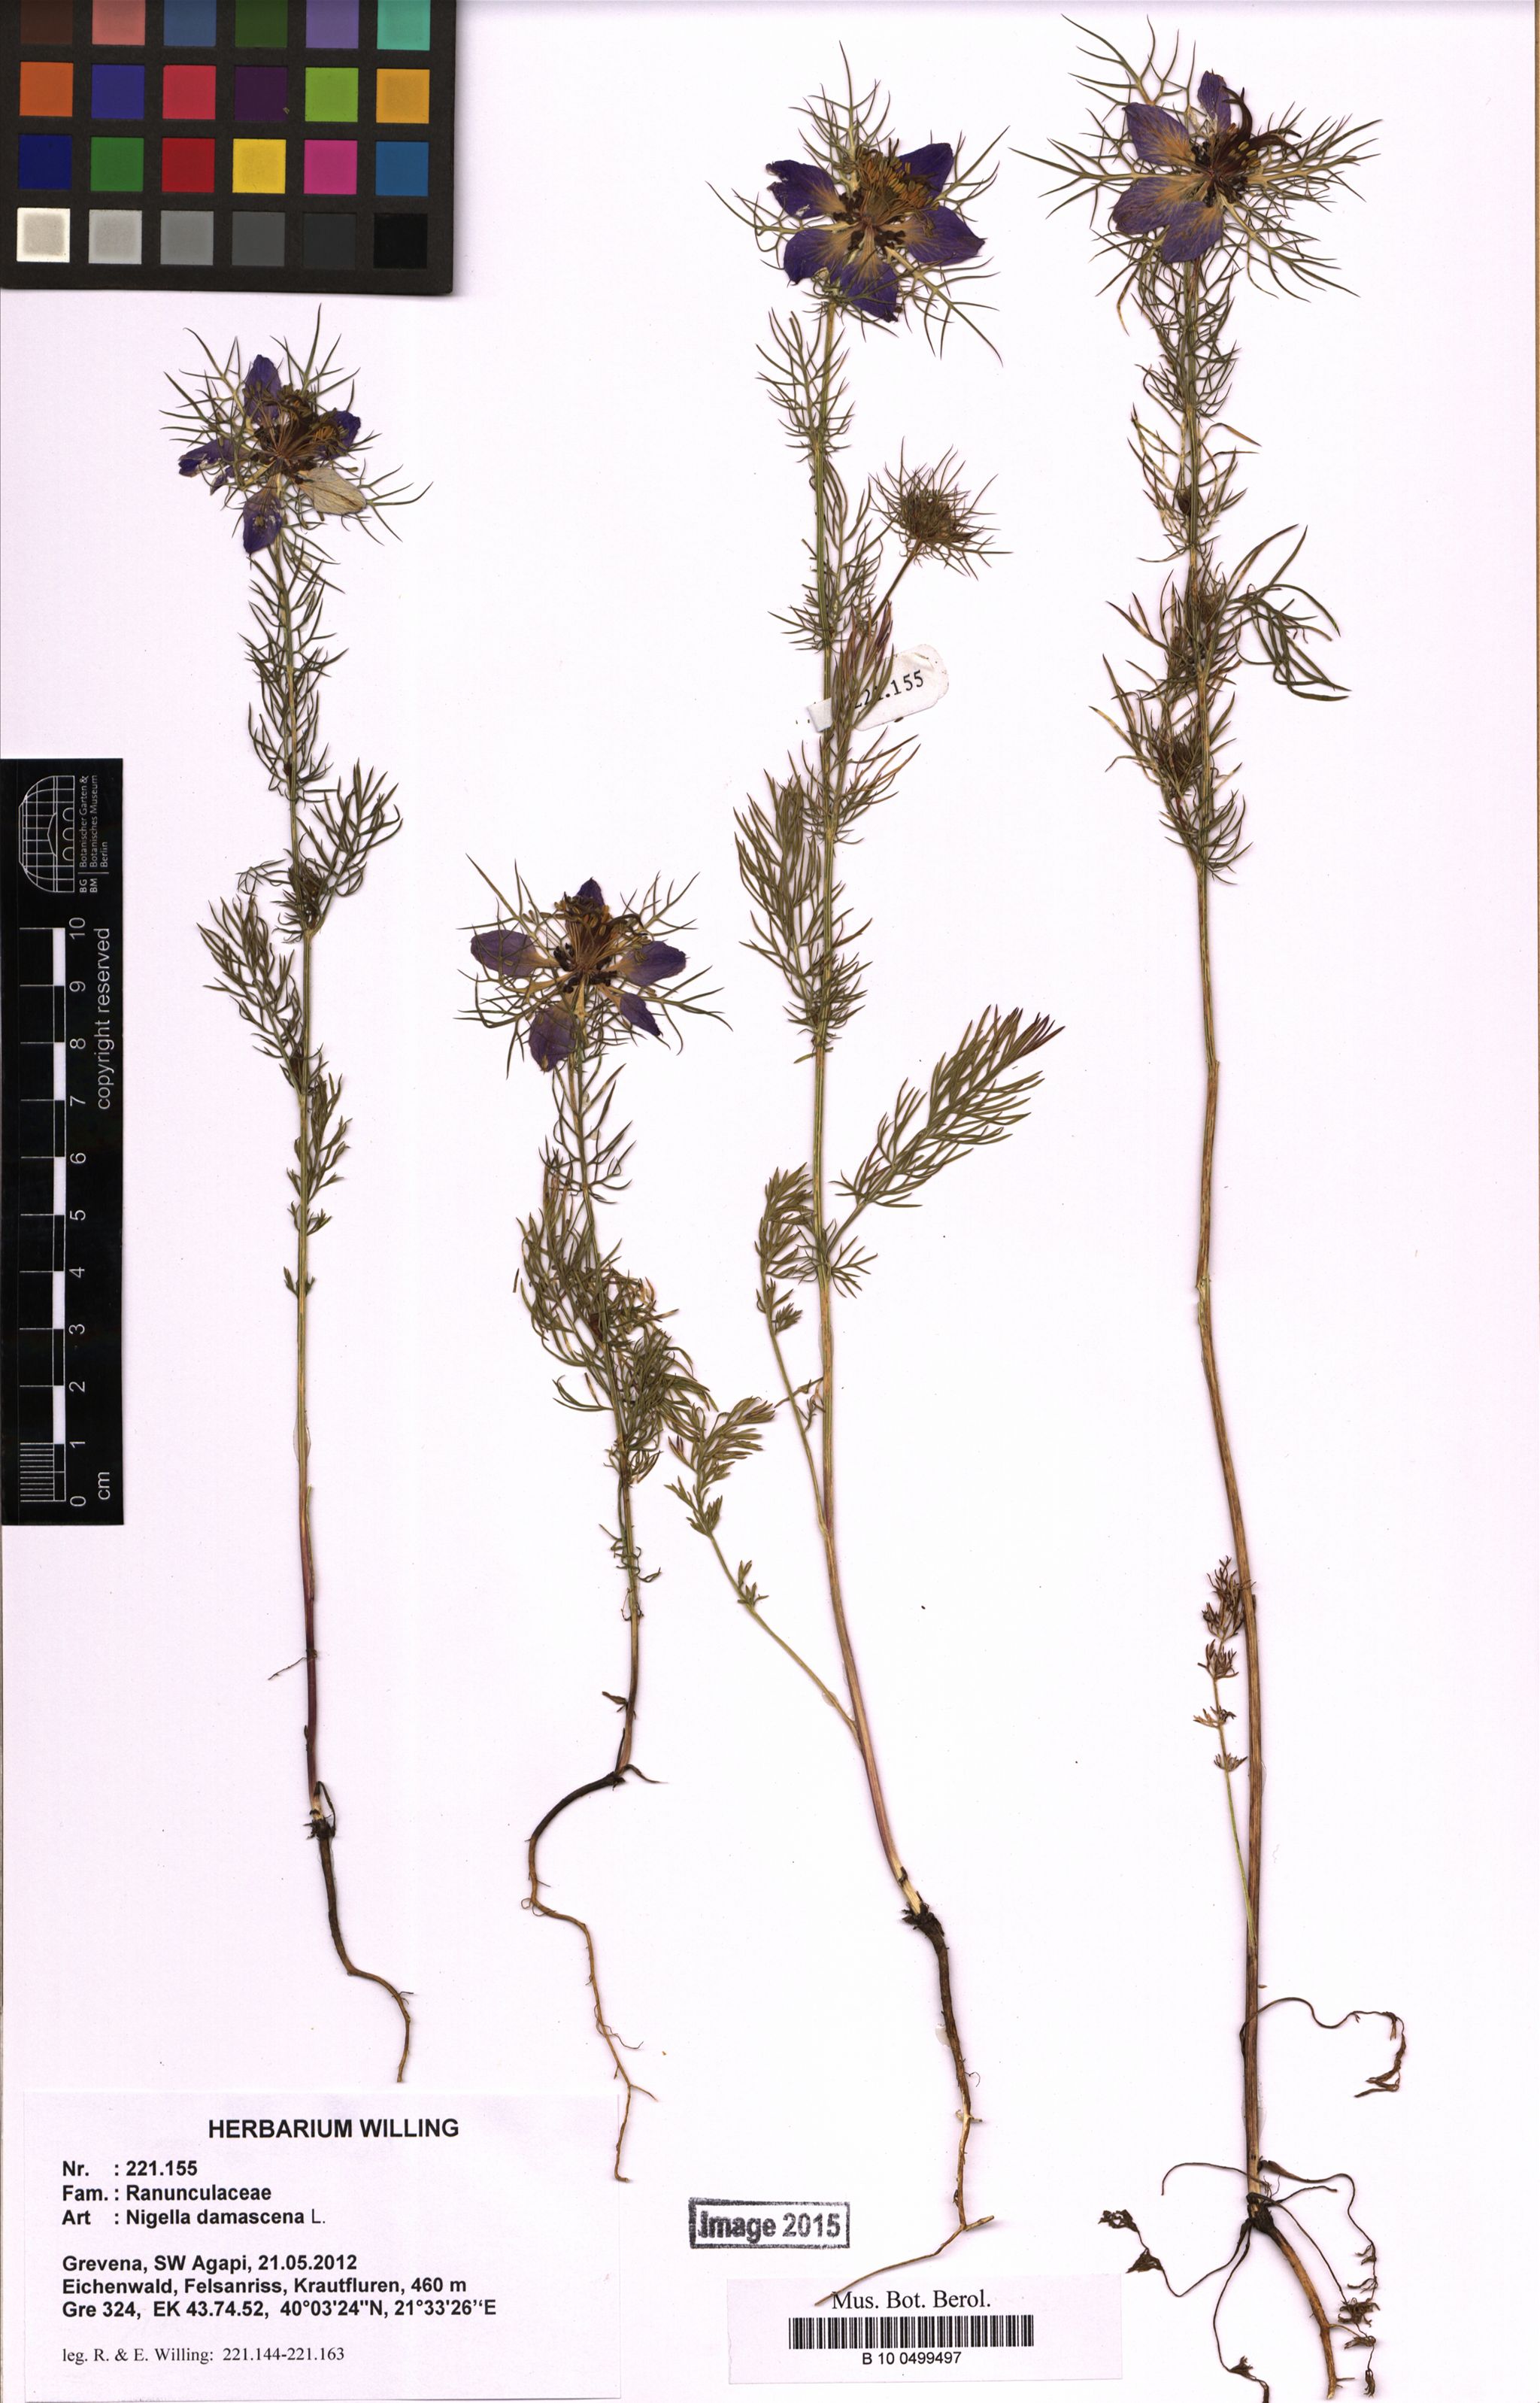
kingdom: Plantae
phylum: Tracheophyta
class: Magnoliopsida
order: Ranunculales
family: Ranunculaceae
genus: Nigella
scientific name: Nigella damascena
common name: Love-in-a-mist
